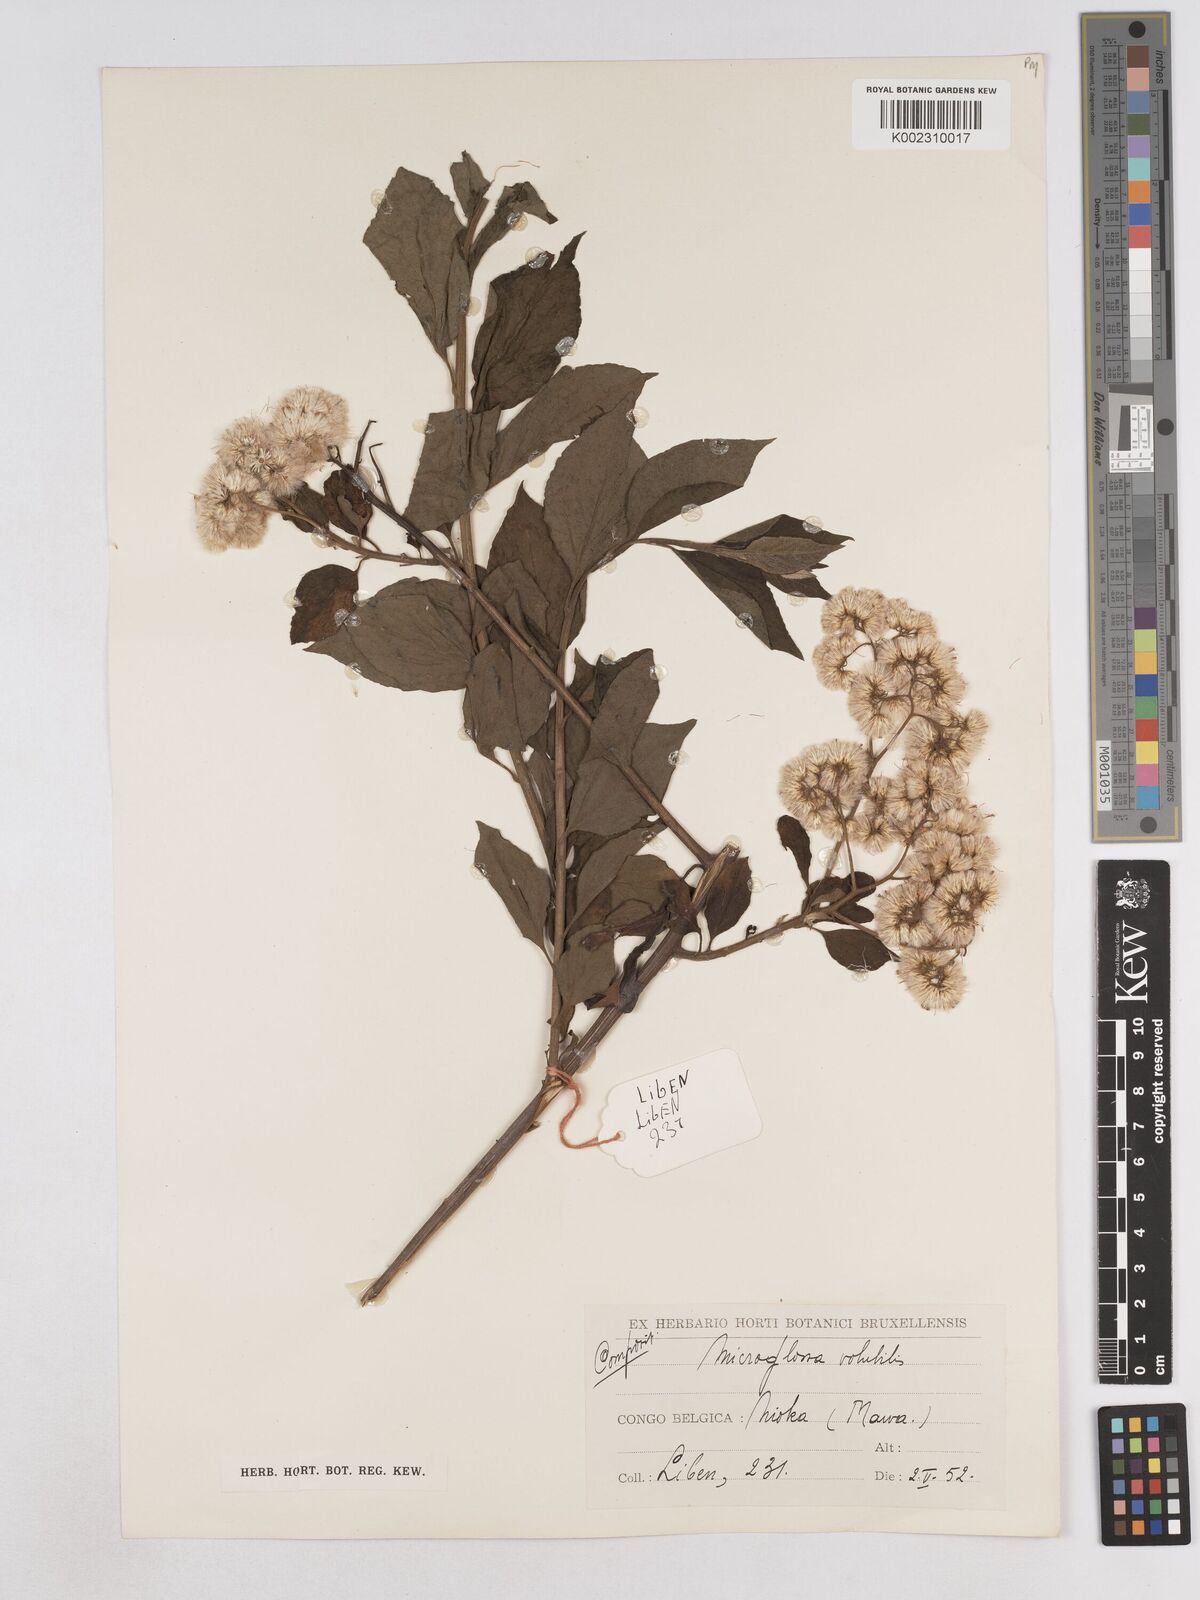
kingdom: Plantae
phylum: Tracheophyta
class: Magnoliopsida
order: Asterales
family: Asteraceae
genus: Microglossa
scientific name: Microglossa pyrifolia
